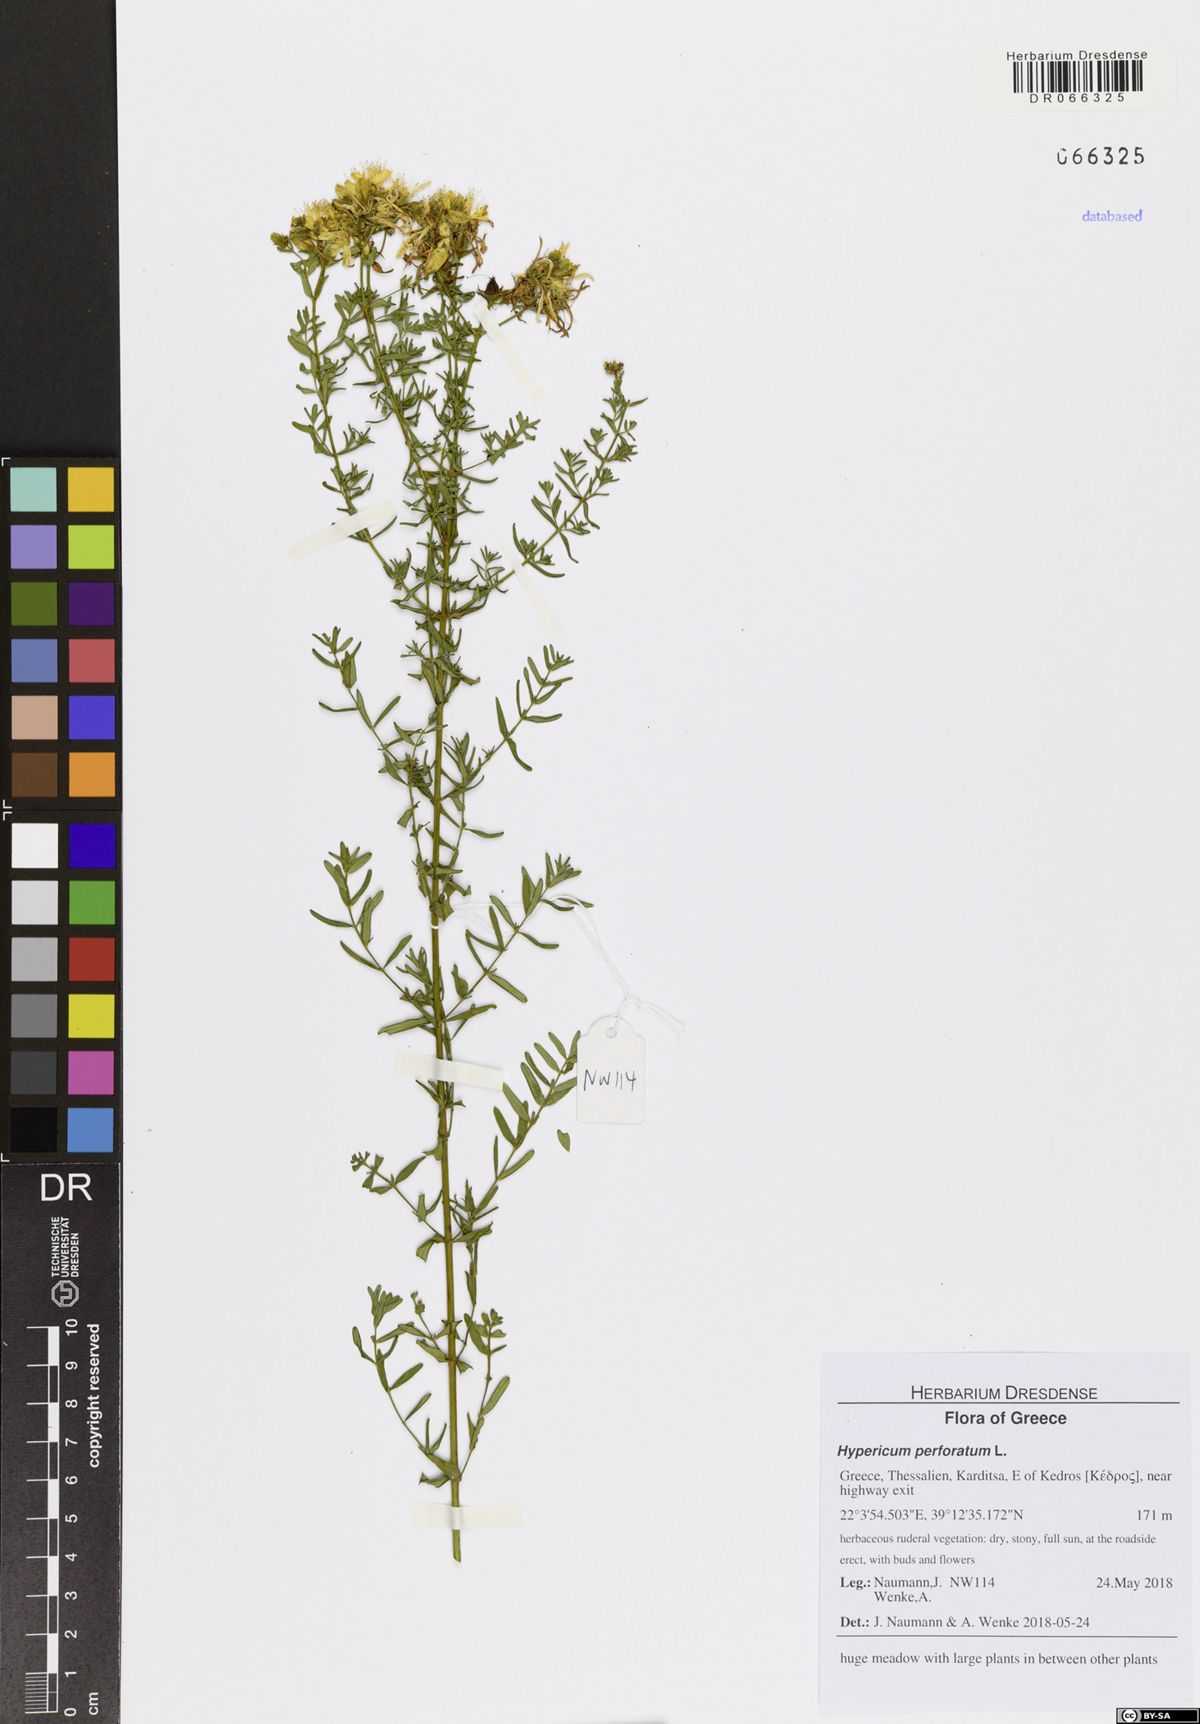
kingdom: Plantae
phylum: Tracheophyta
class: Magnoliopsida
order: Malpighiales
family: Hypericaceae
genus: Hypericum
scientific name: Hypericum perforatum
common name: Common st. johnswort
